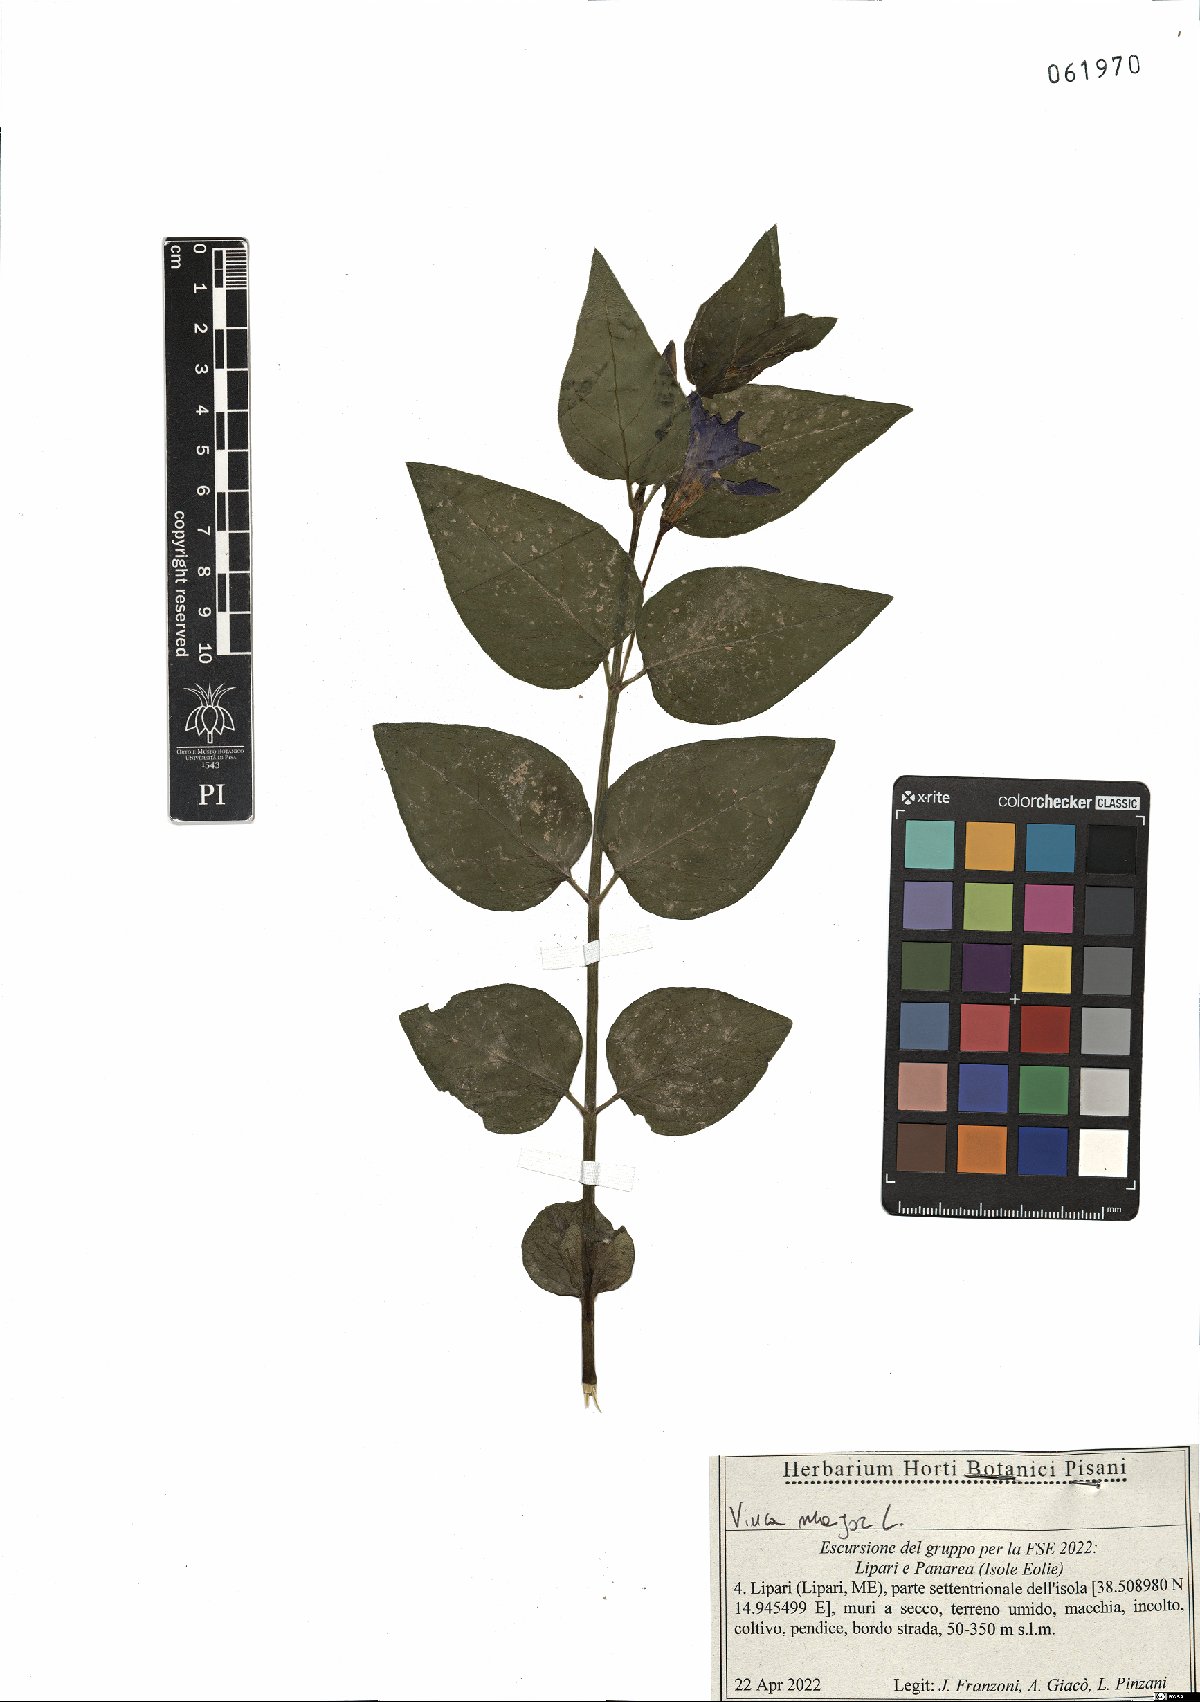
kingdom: Plantae
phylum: Tracheophyta
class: Magnoliopsida
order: Gentianales
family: Apocynaceae
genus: Vinca
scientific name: Vinca major
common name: Greater periwinkle
